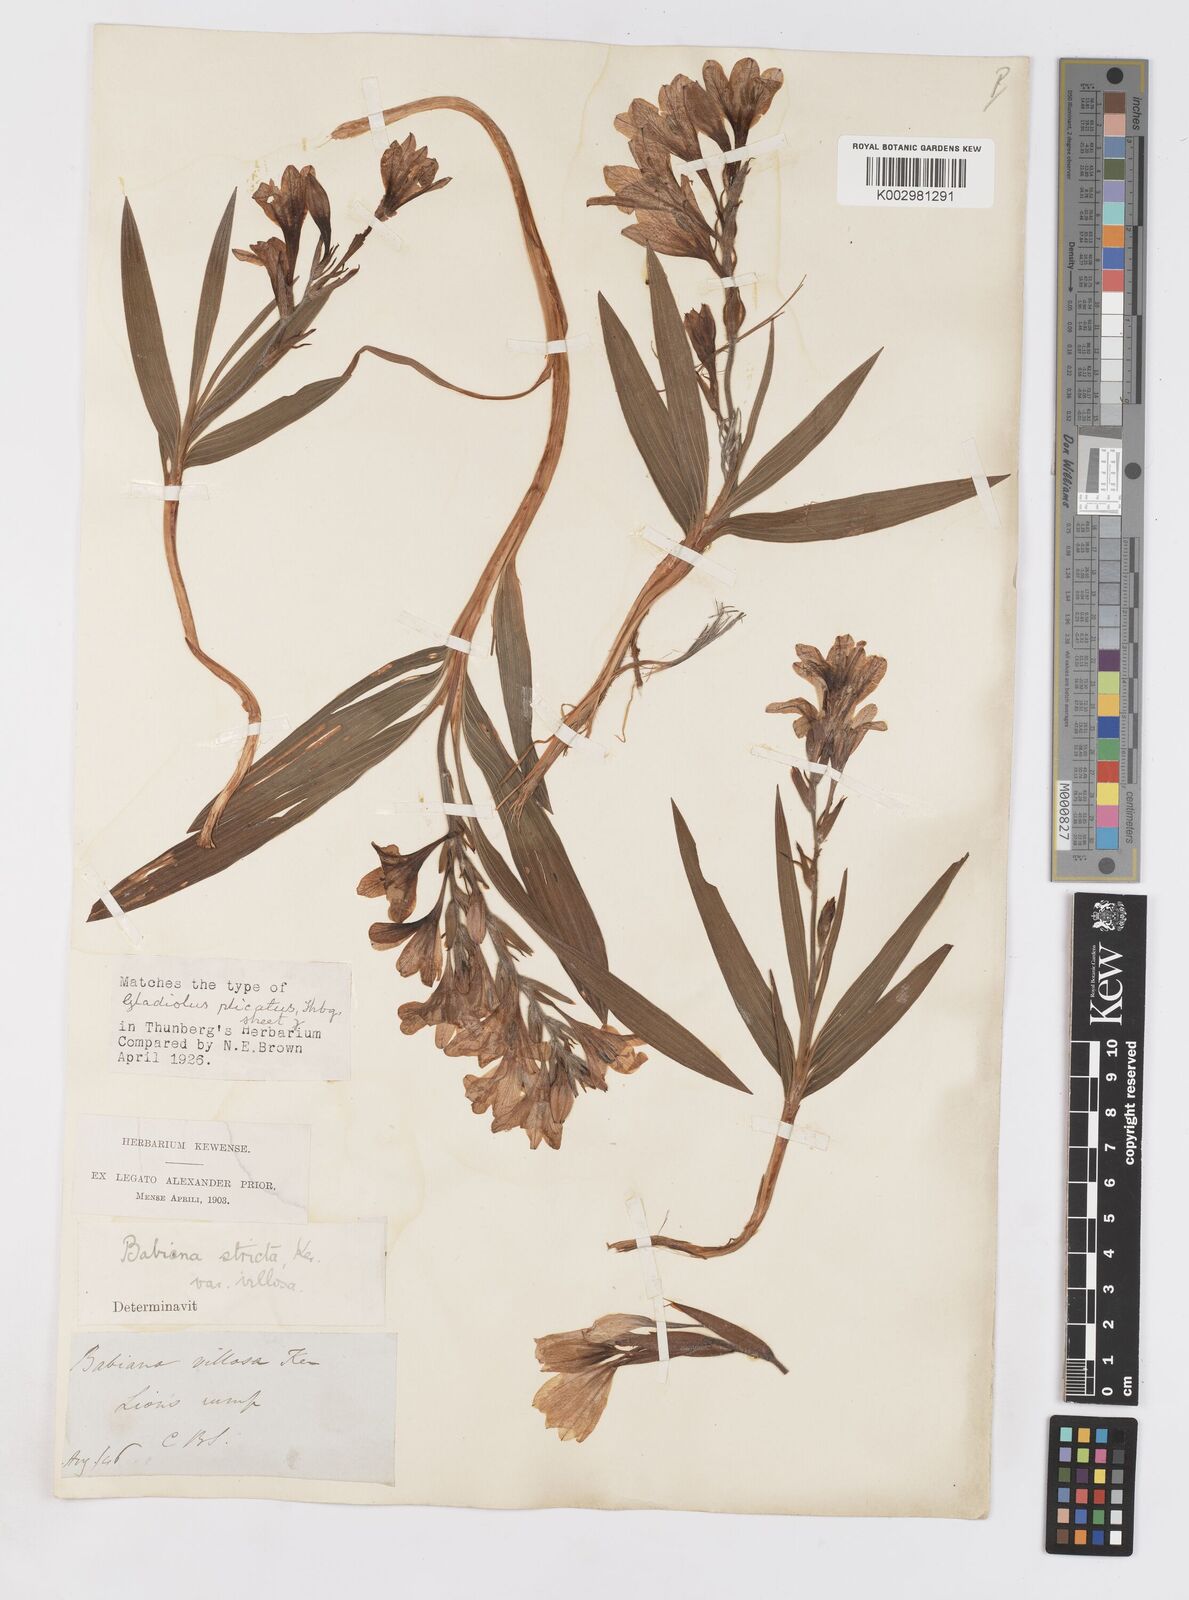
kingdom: Plantae
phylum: Tracheophyta
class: Liliopsida
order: Asparagales
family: Iridaceae
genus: Babiana
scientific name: Babiana nervosa
